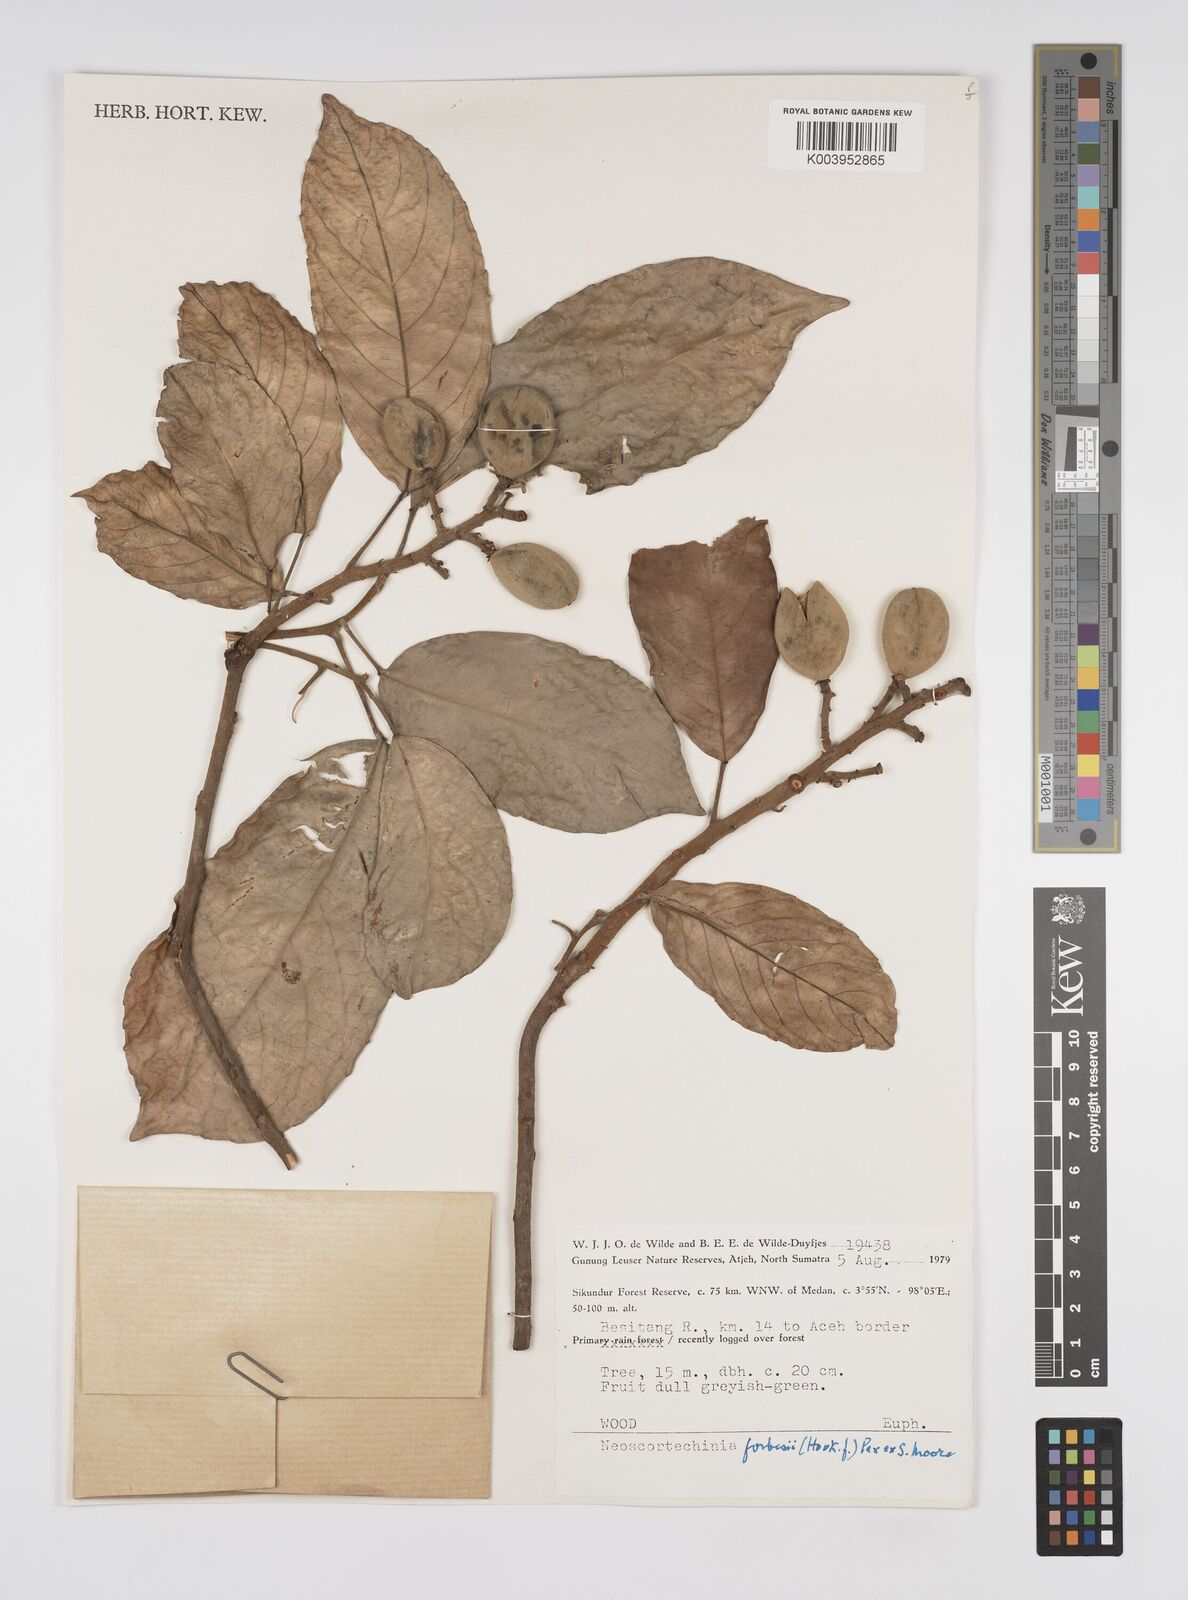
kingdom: Plantae
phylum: Tracheophyta
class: Magnoliopsida
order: Malpighiales
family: Euphorbiaceae
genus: Neoscortechinia
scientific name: Neoscortechinia philippinensis
